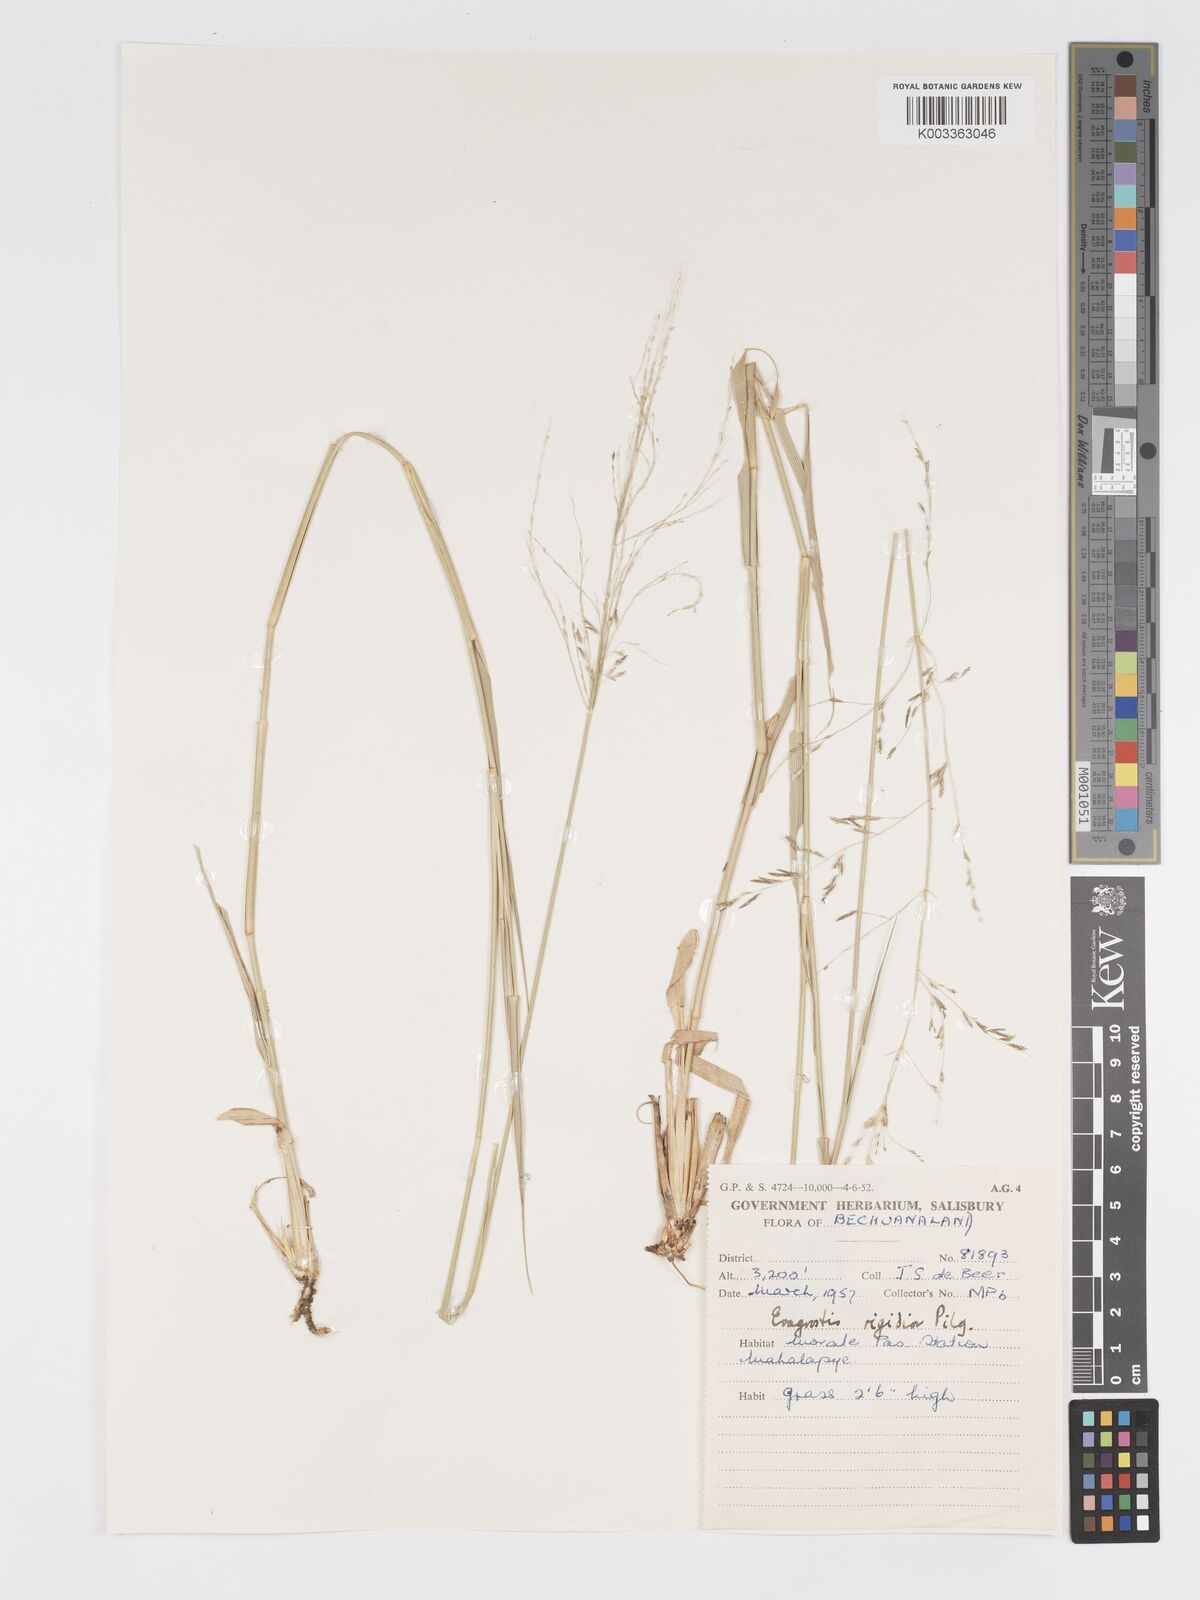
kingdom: Plantae
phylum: Tracheophyta
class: Liliopsida
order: Poales
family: Poaceae
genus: Eragrostis
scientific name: Eragrostis cylindriflora
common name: Cylinderflower lovegrass
